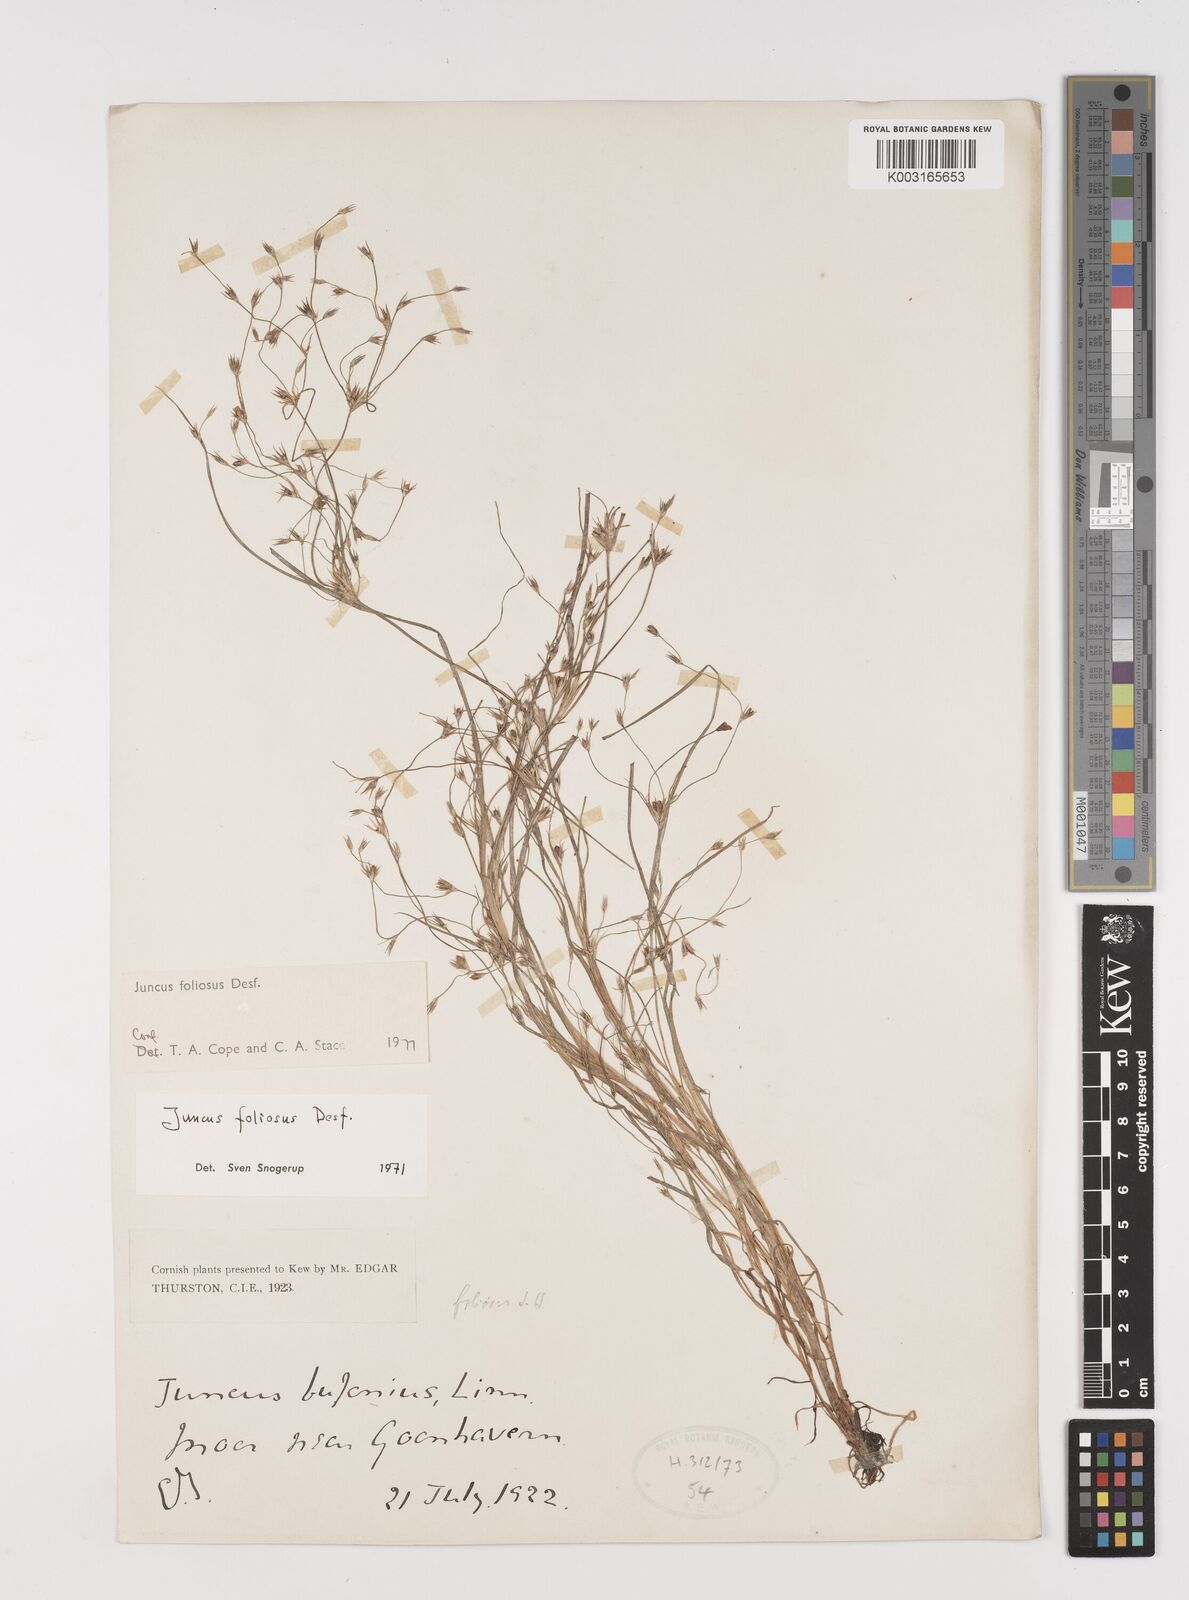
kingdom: Plantae
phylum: Tracheophyta
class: Liliopsida
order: Poales
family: Juncaceae
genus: Juncus
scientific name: Juncus foliosus
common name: Leafy rush
